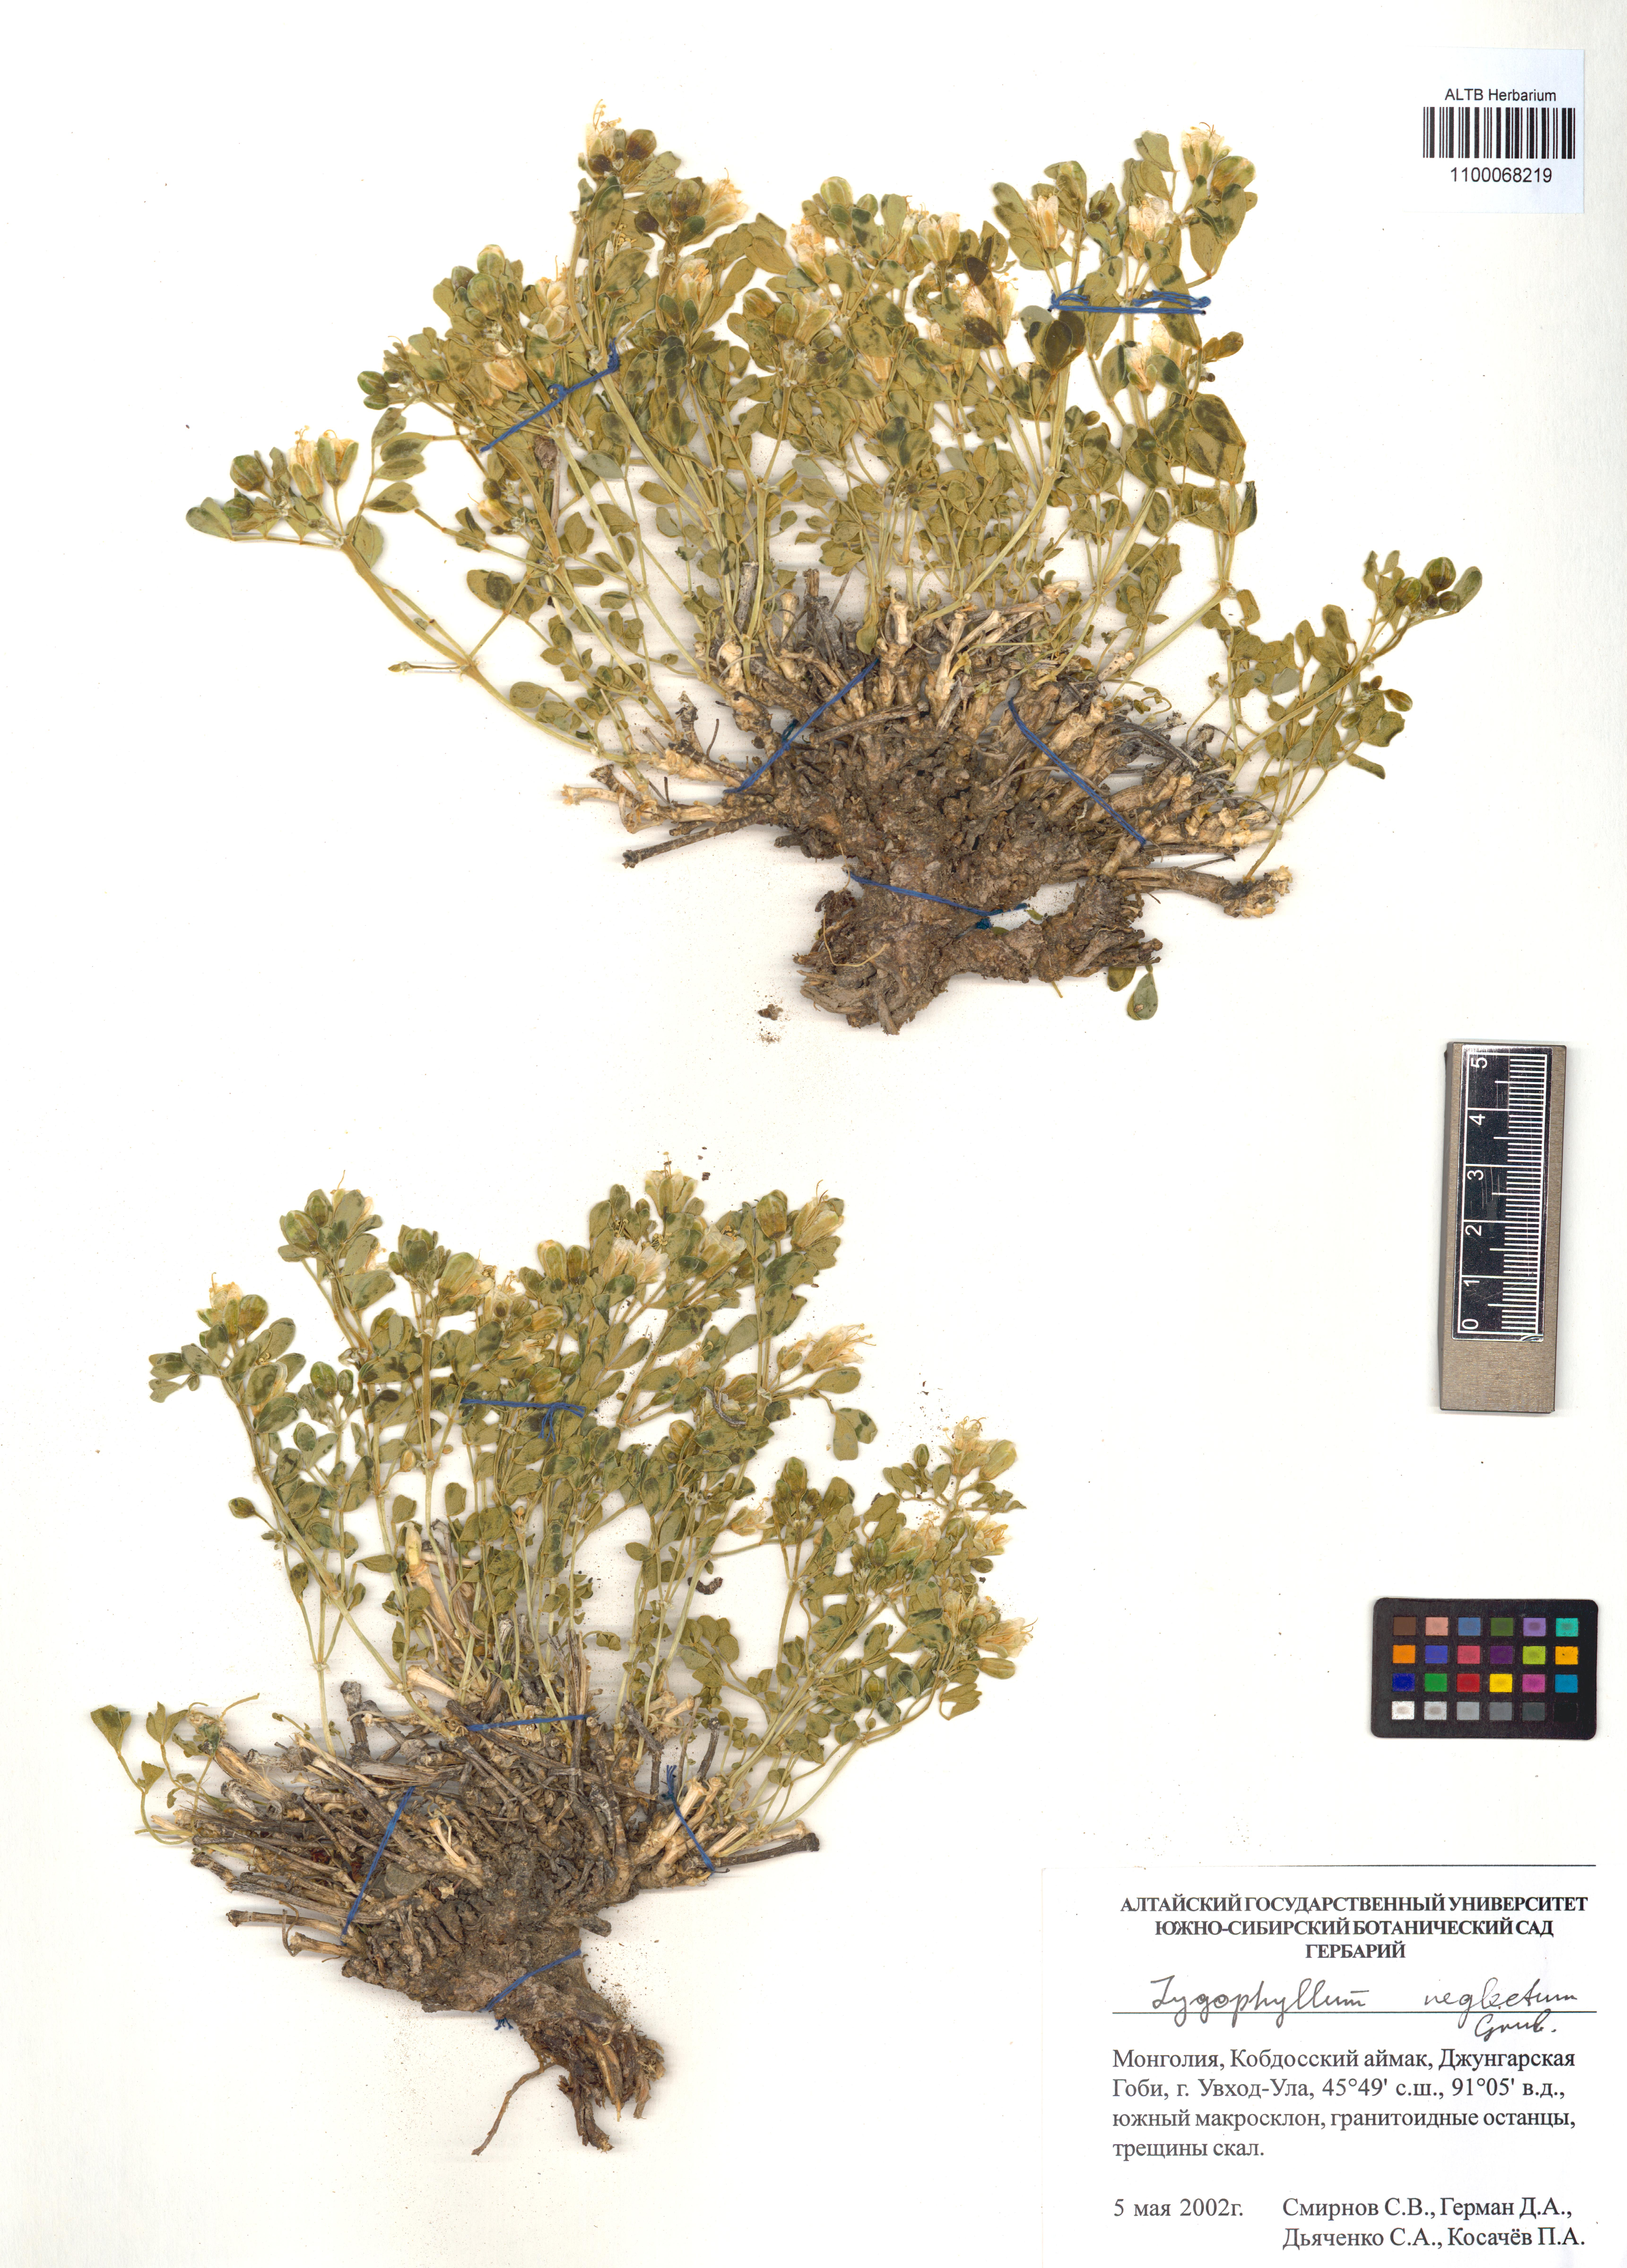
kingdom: Plantae
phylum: Tracheophyta
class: Magnoliopsida
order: Zygophyllales
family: Zygophyllaceae
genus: Zygophyllum
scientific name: Zygophyllum neglectum
